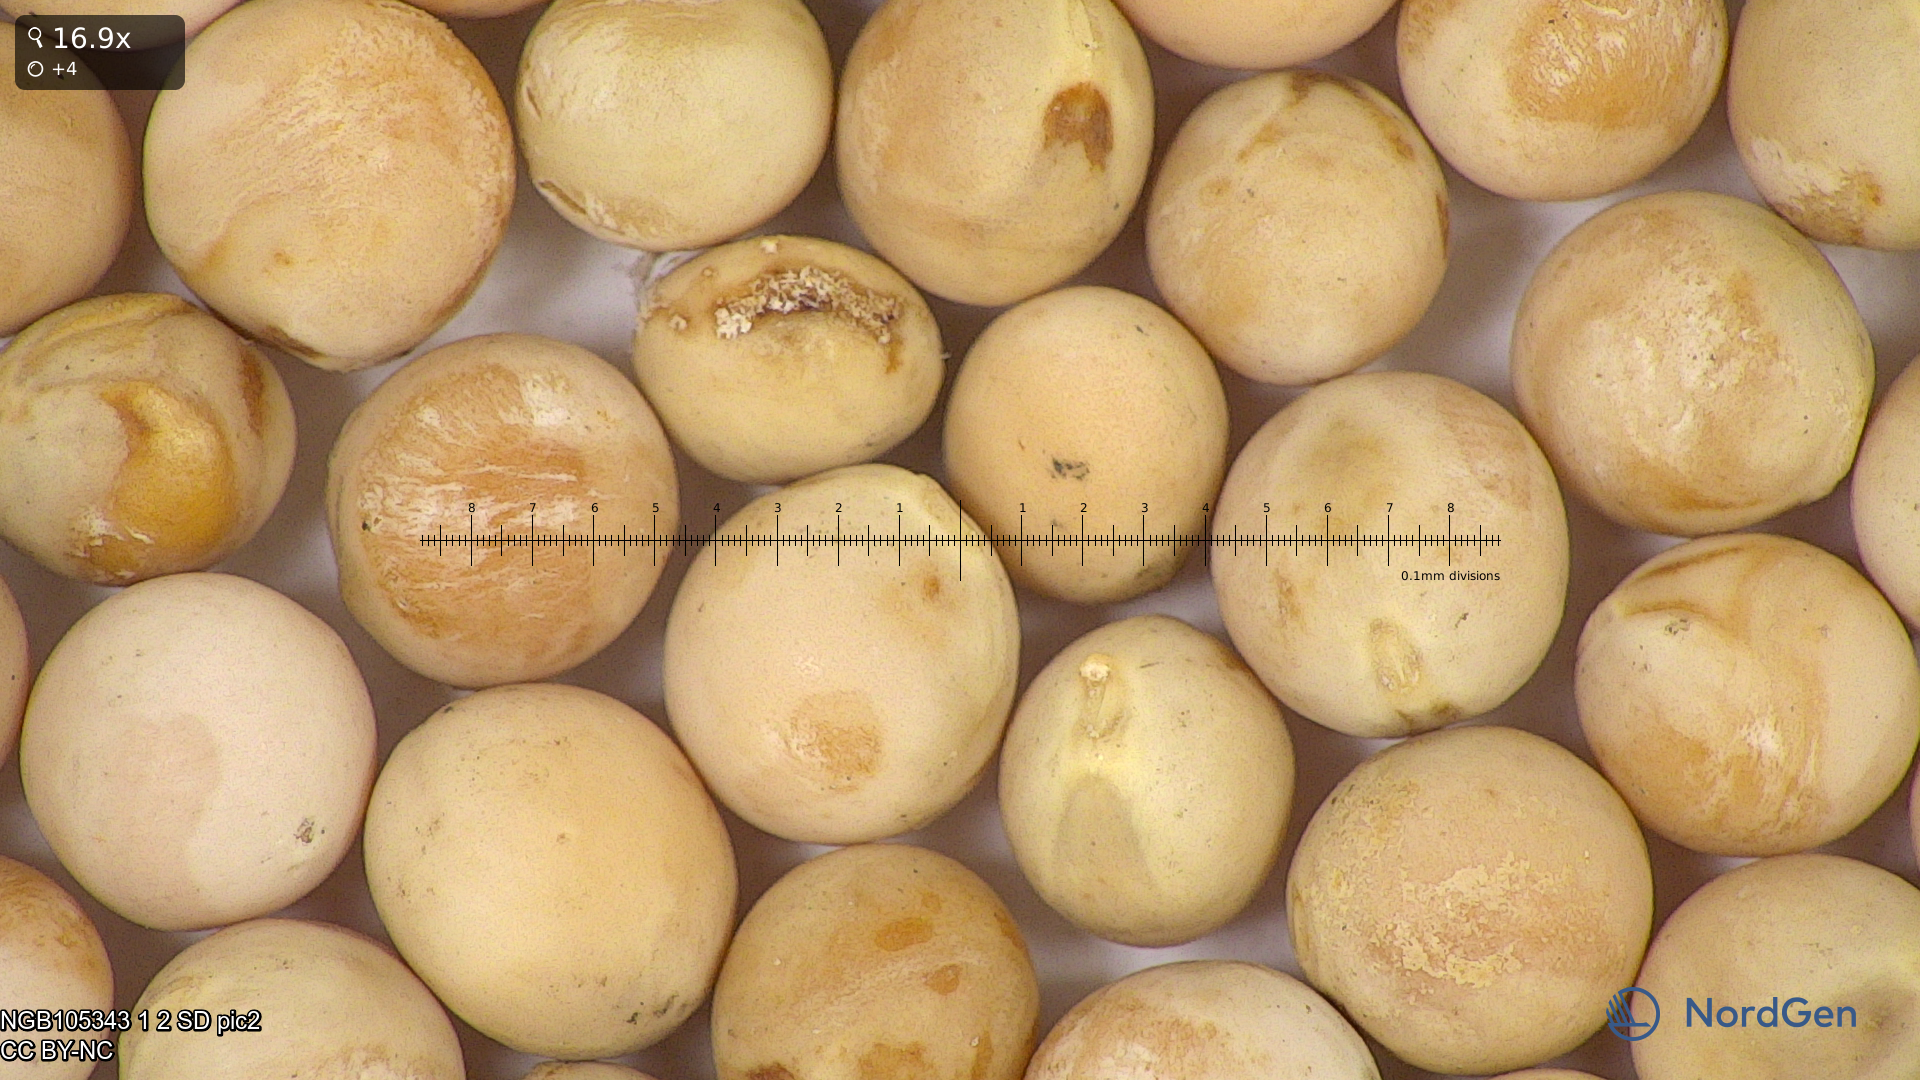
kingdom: Plantae
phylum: Tracheophyta
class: Magnoliopsida
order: Fabales
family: Fabaceae
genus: Lathyrus
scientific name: Lathyrus oleraceus
